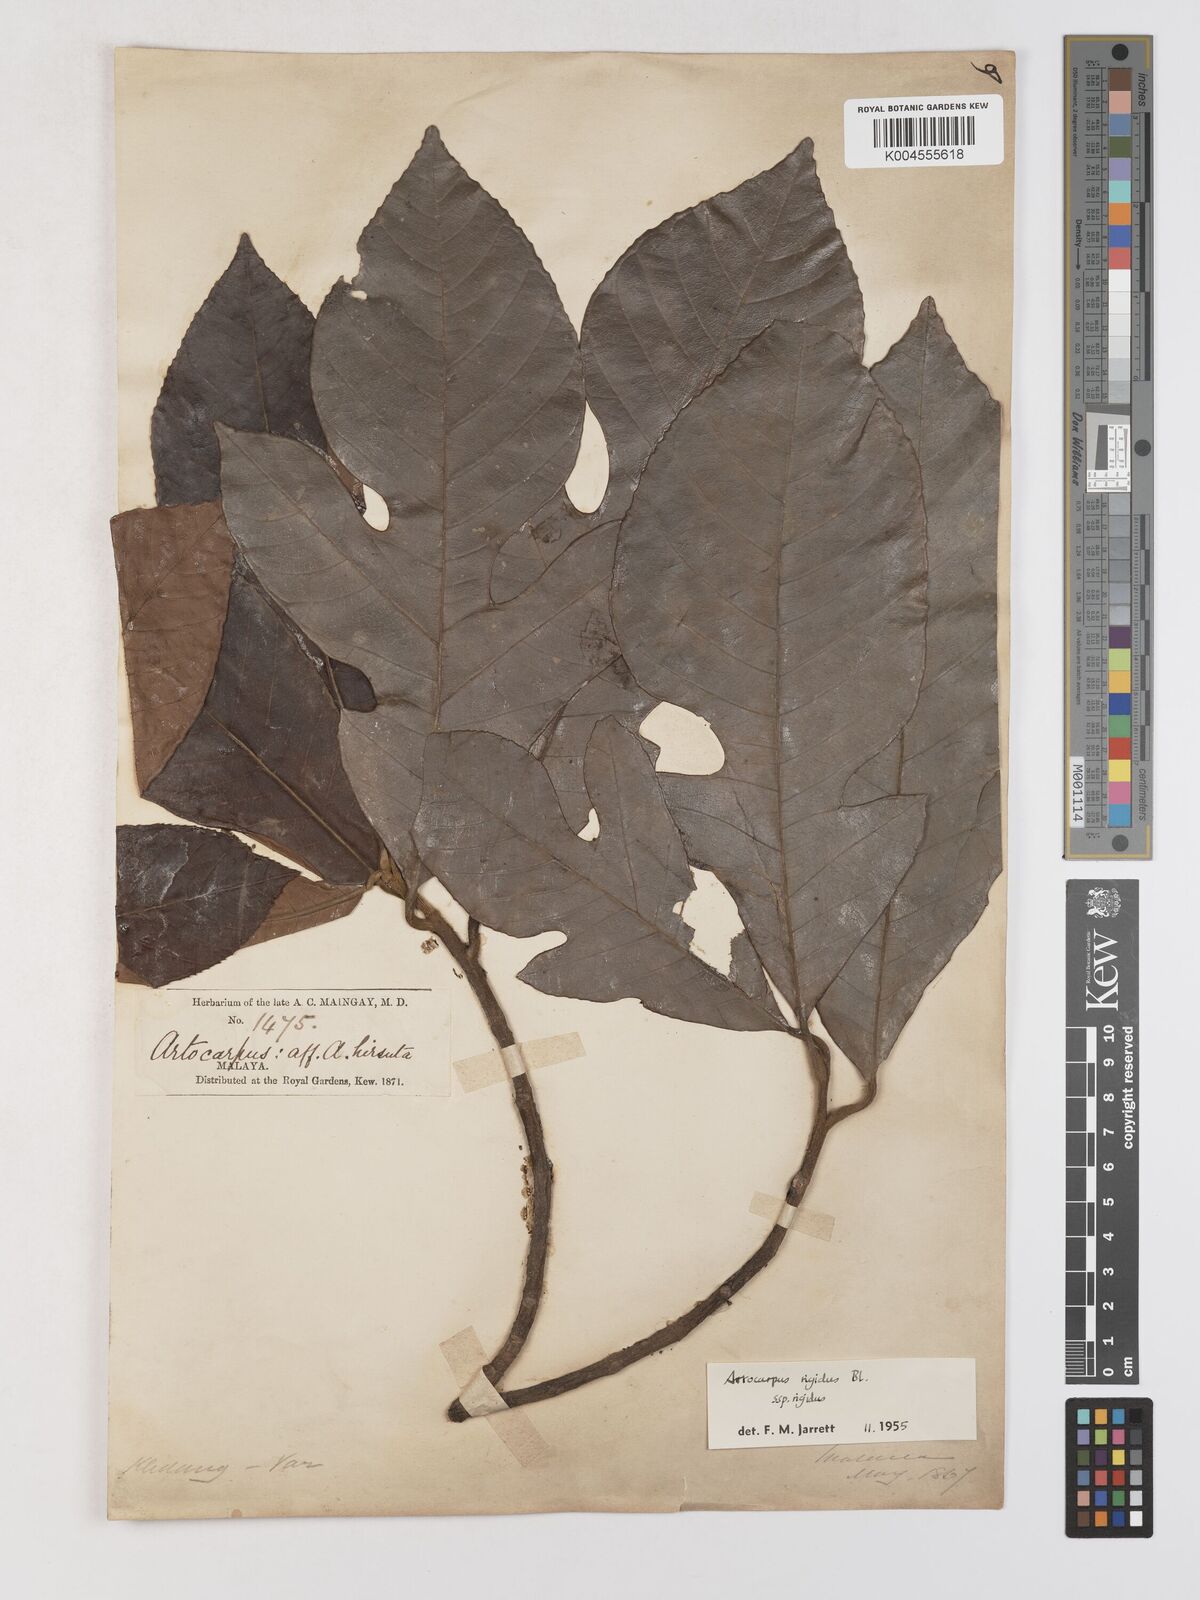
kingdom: Plantae
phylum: Tracheophyta
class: Magnoliopsida
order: Rosales
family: Moraceae
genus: Artocarpus
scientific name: Artocarpus
